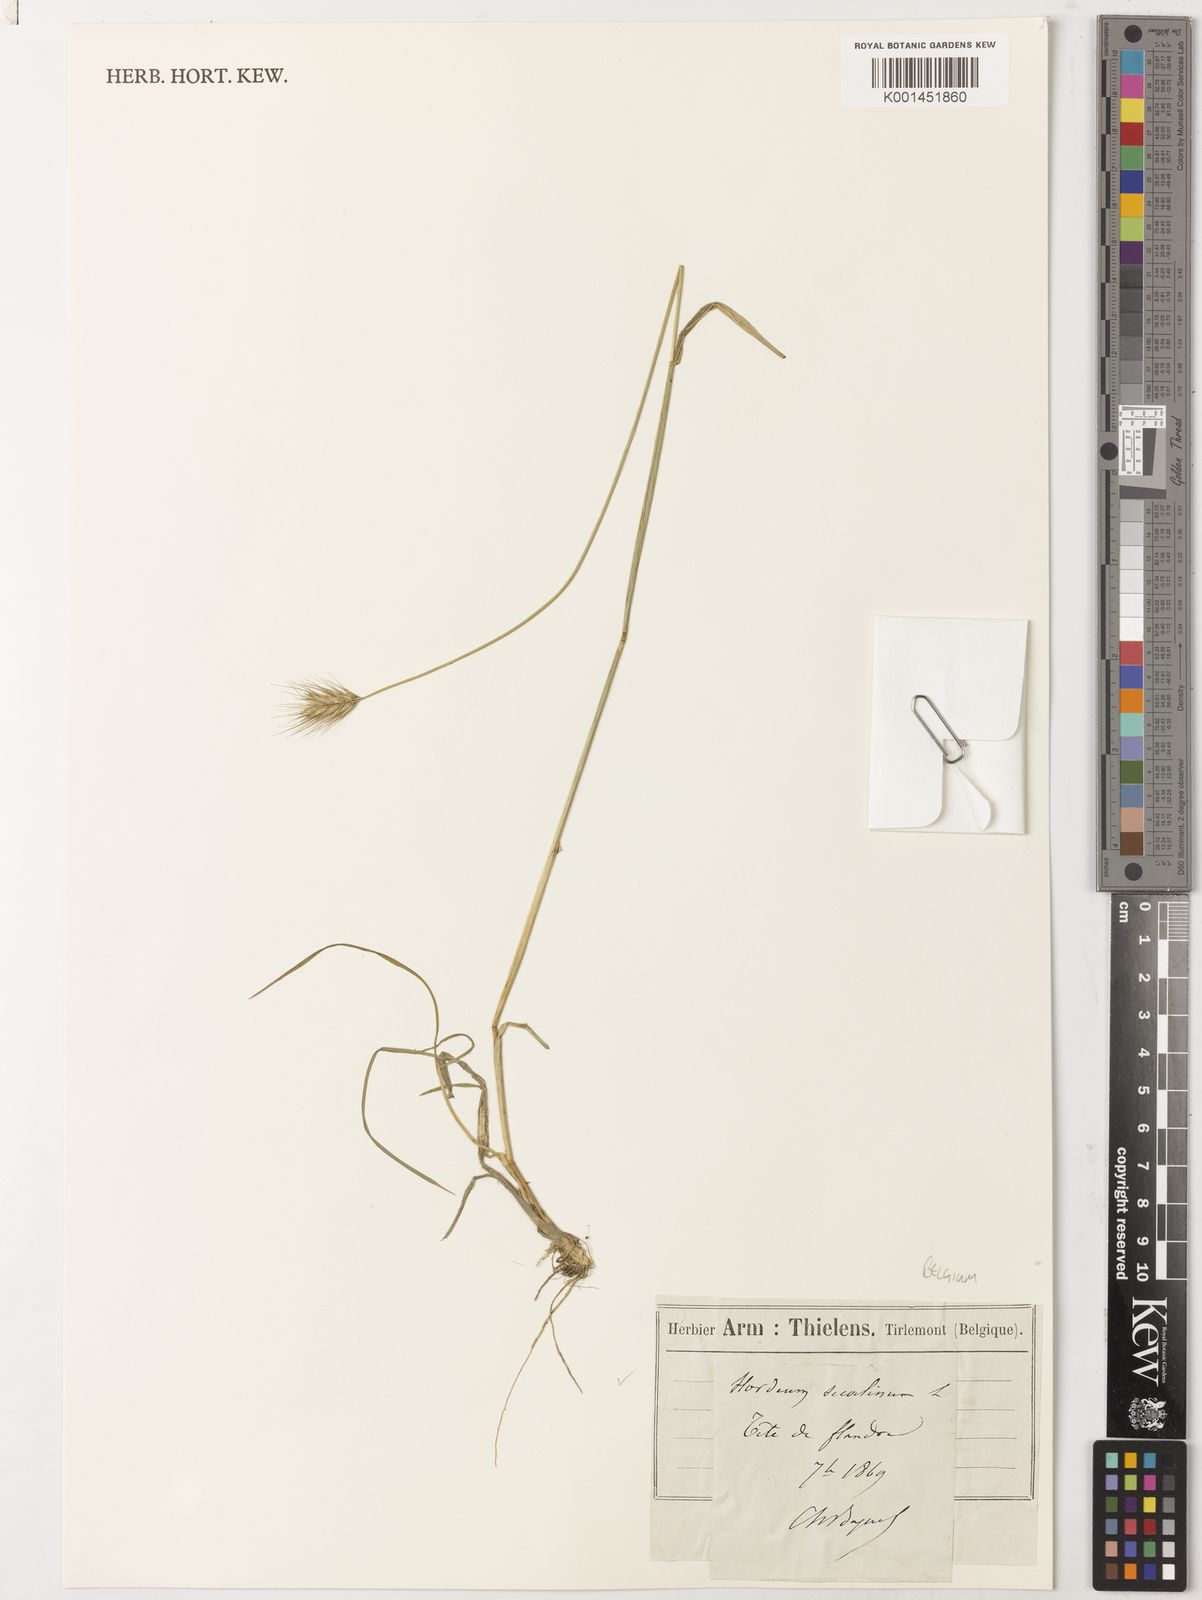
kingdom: Plantae
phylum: Tracheophyta
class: Liliopsida
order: Poales
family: Poaceae
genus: Hordeum
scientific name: Hordeum
